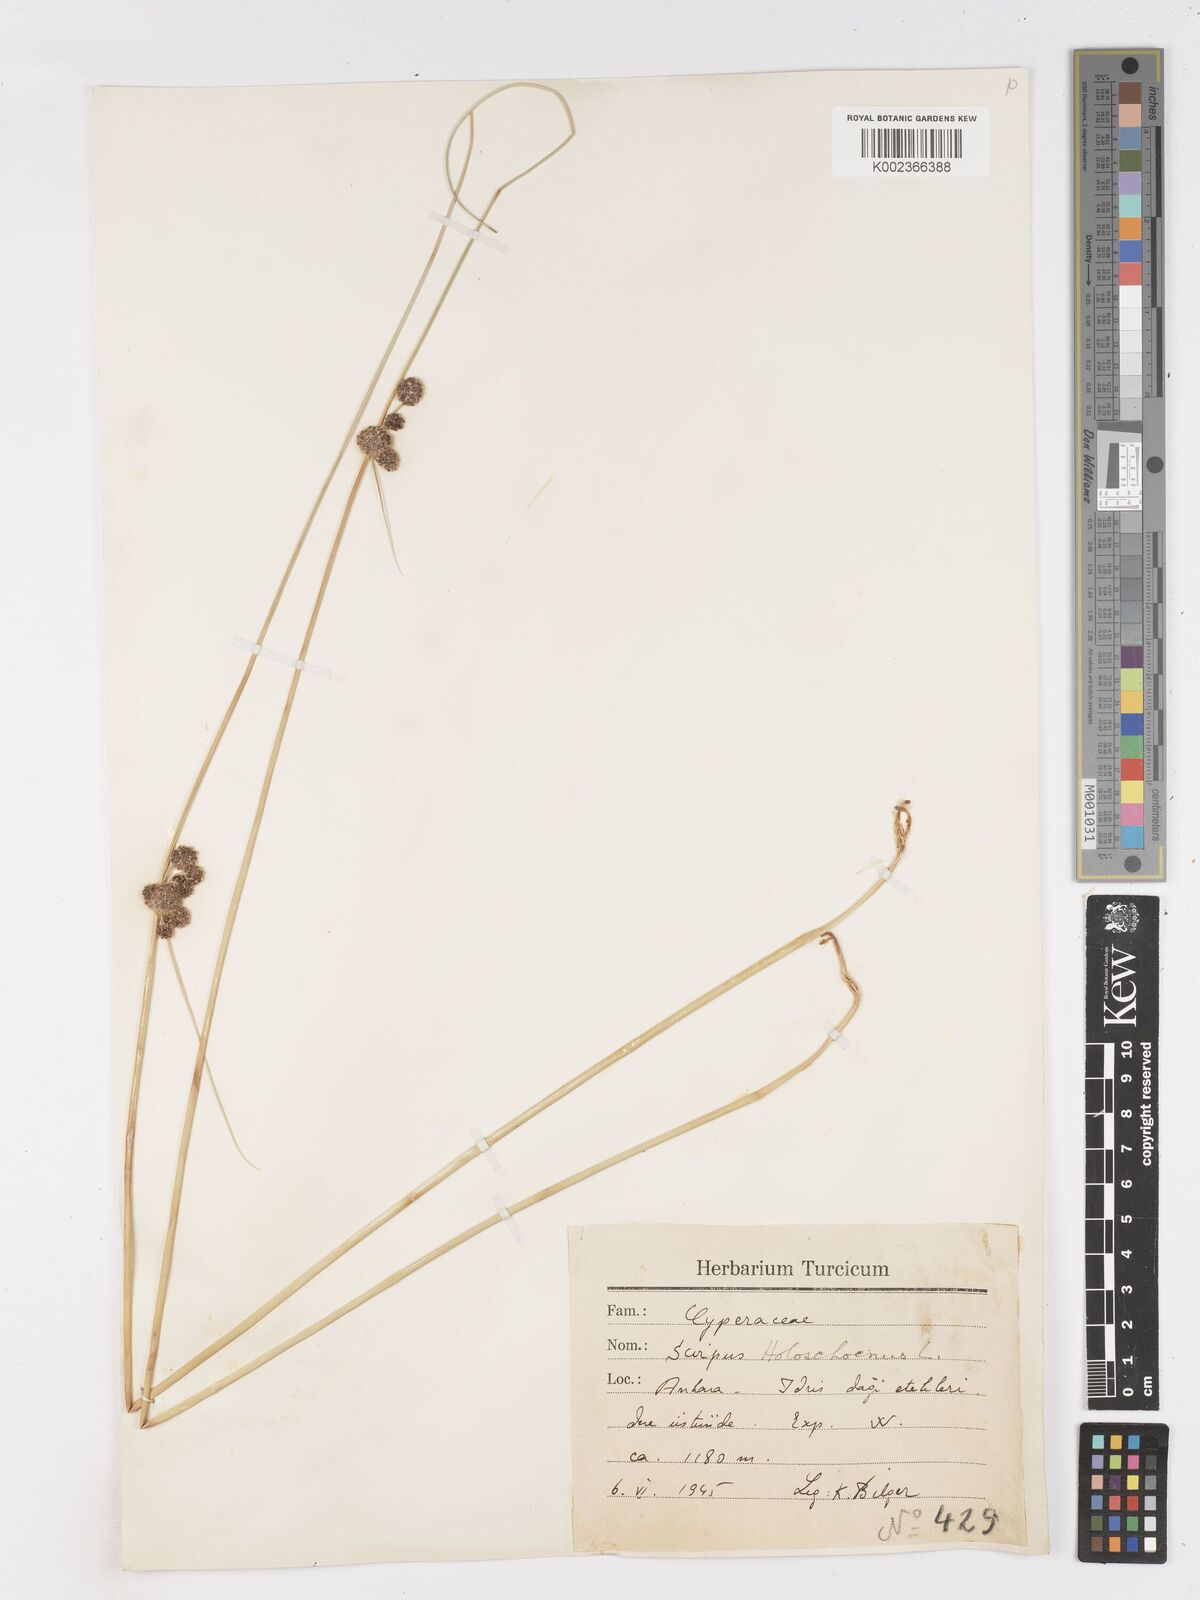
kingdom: Plantae
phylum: Tracheophyta
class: Liliopsida
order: Poales
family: Cyperaceae
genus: Scirpoides
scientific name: Scirpoides holoschoenus
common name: Round-headed club-rush
